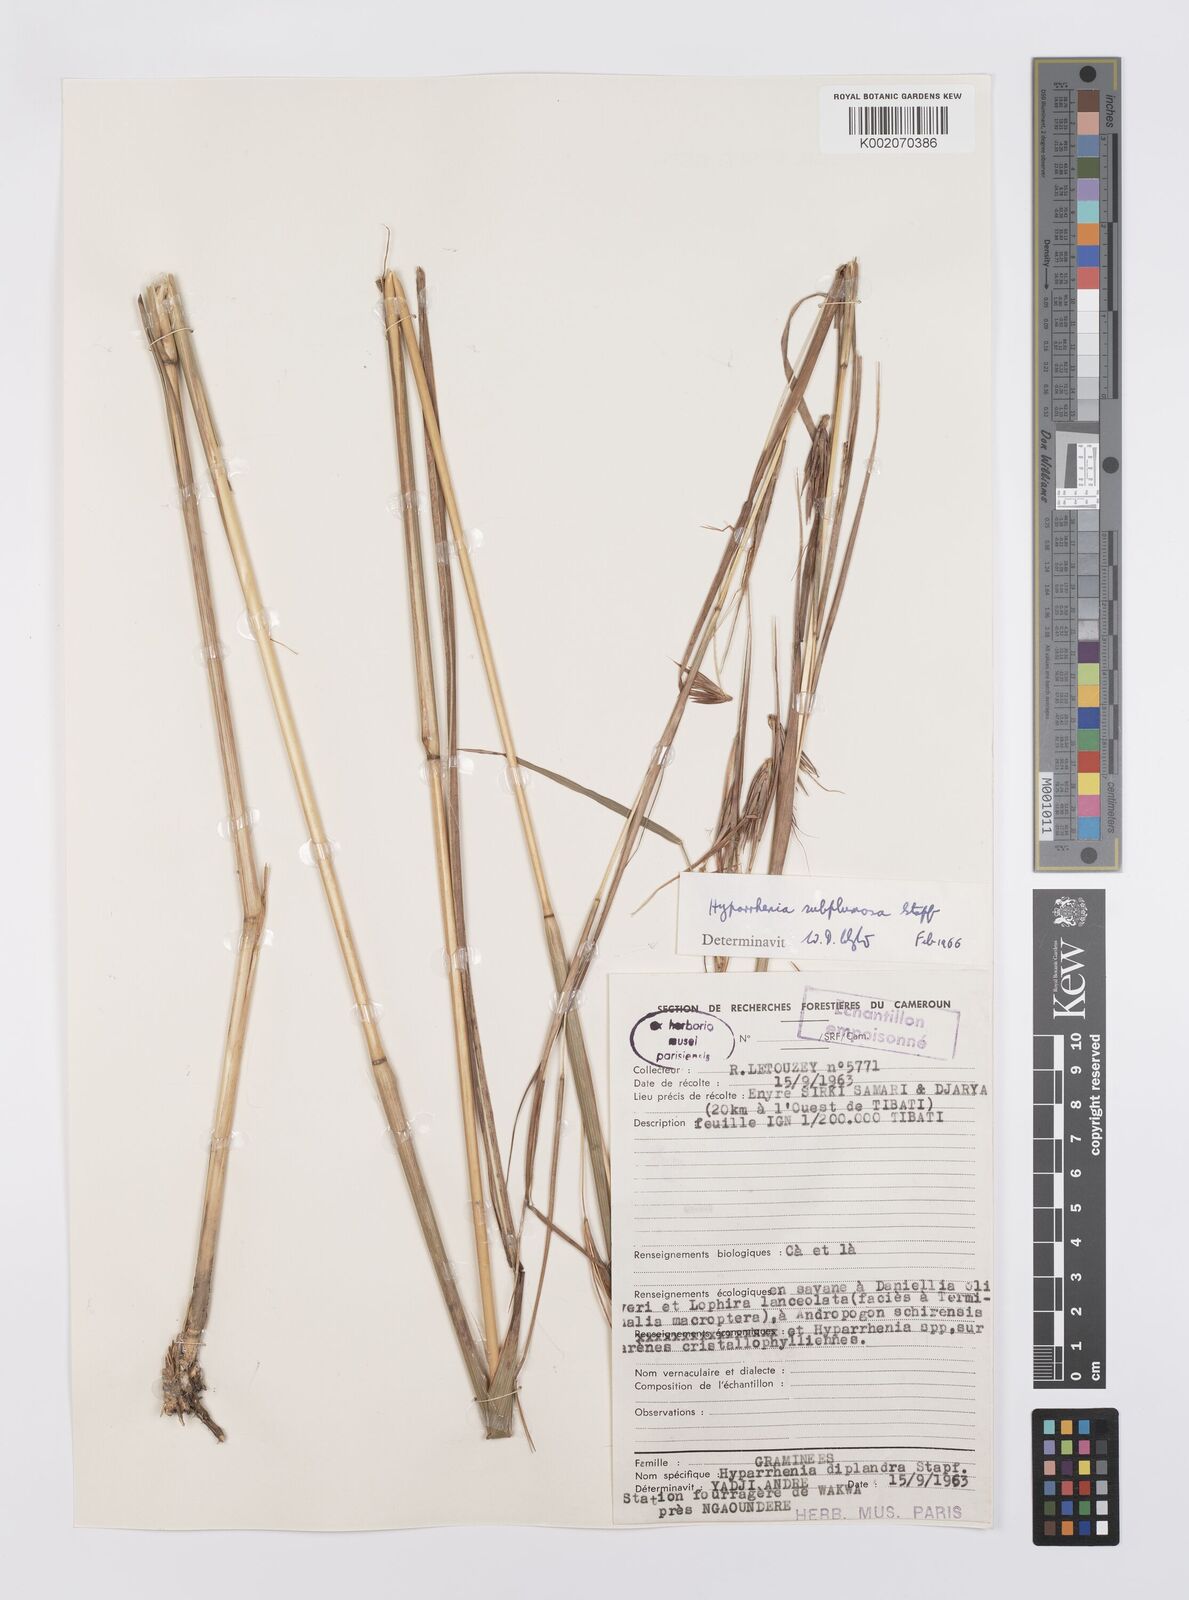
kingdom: Plantae
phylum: Tracheophyta
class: Liliopsida
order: Poales
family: Poaceae
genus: Hyparrhenia
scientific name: Hyparrhenia subplumosa
